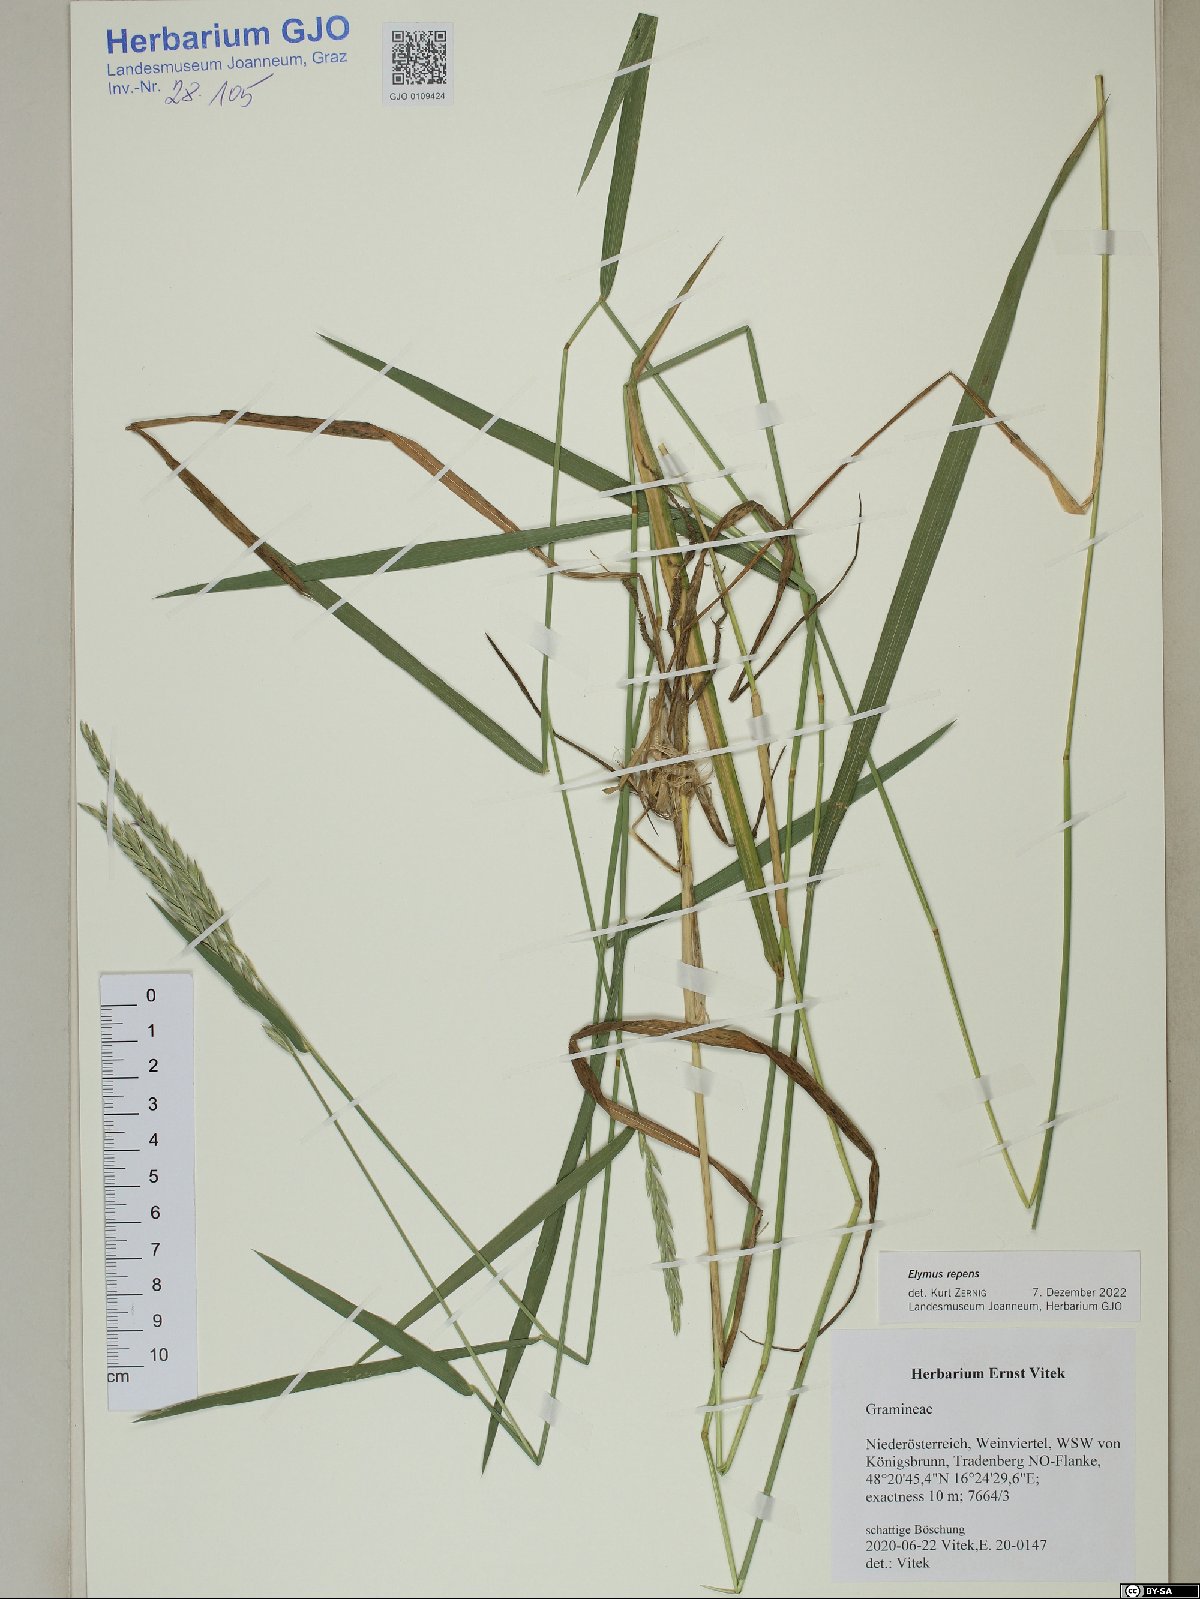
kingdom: Plantae
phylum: Tracheophyta
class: Liliopsida
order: Poales
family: Poaceae
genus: Elymus
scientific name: Elymus repens
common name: Quackgrass
